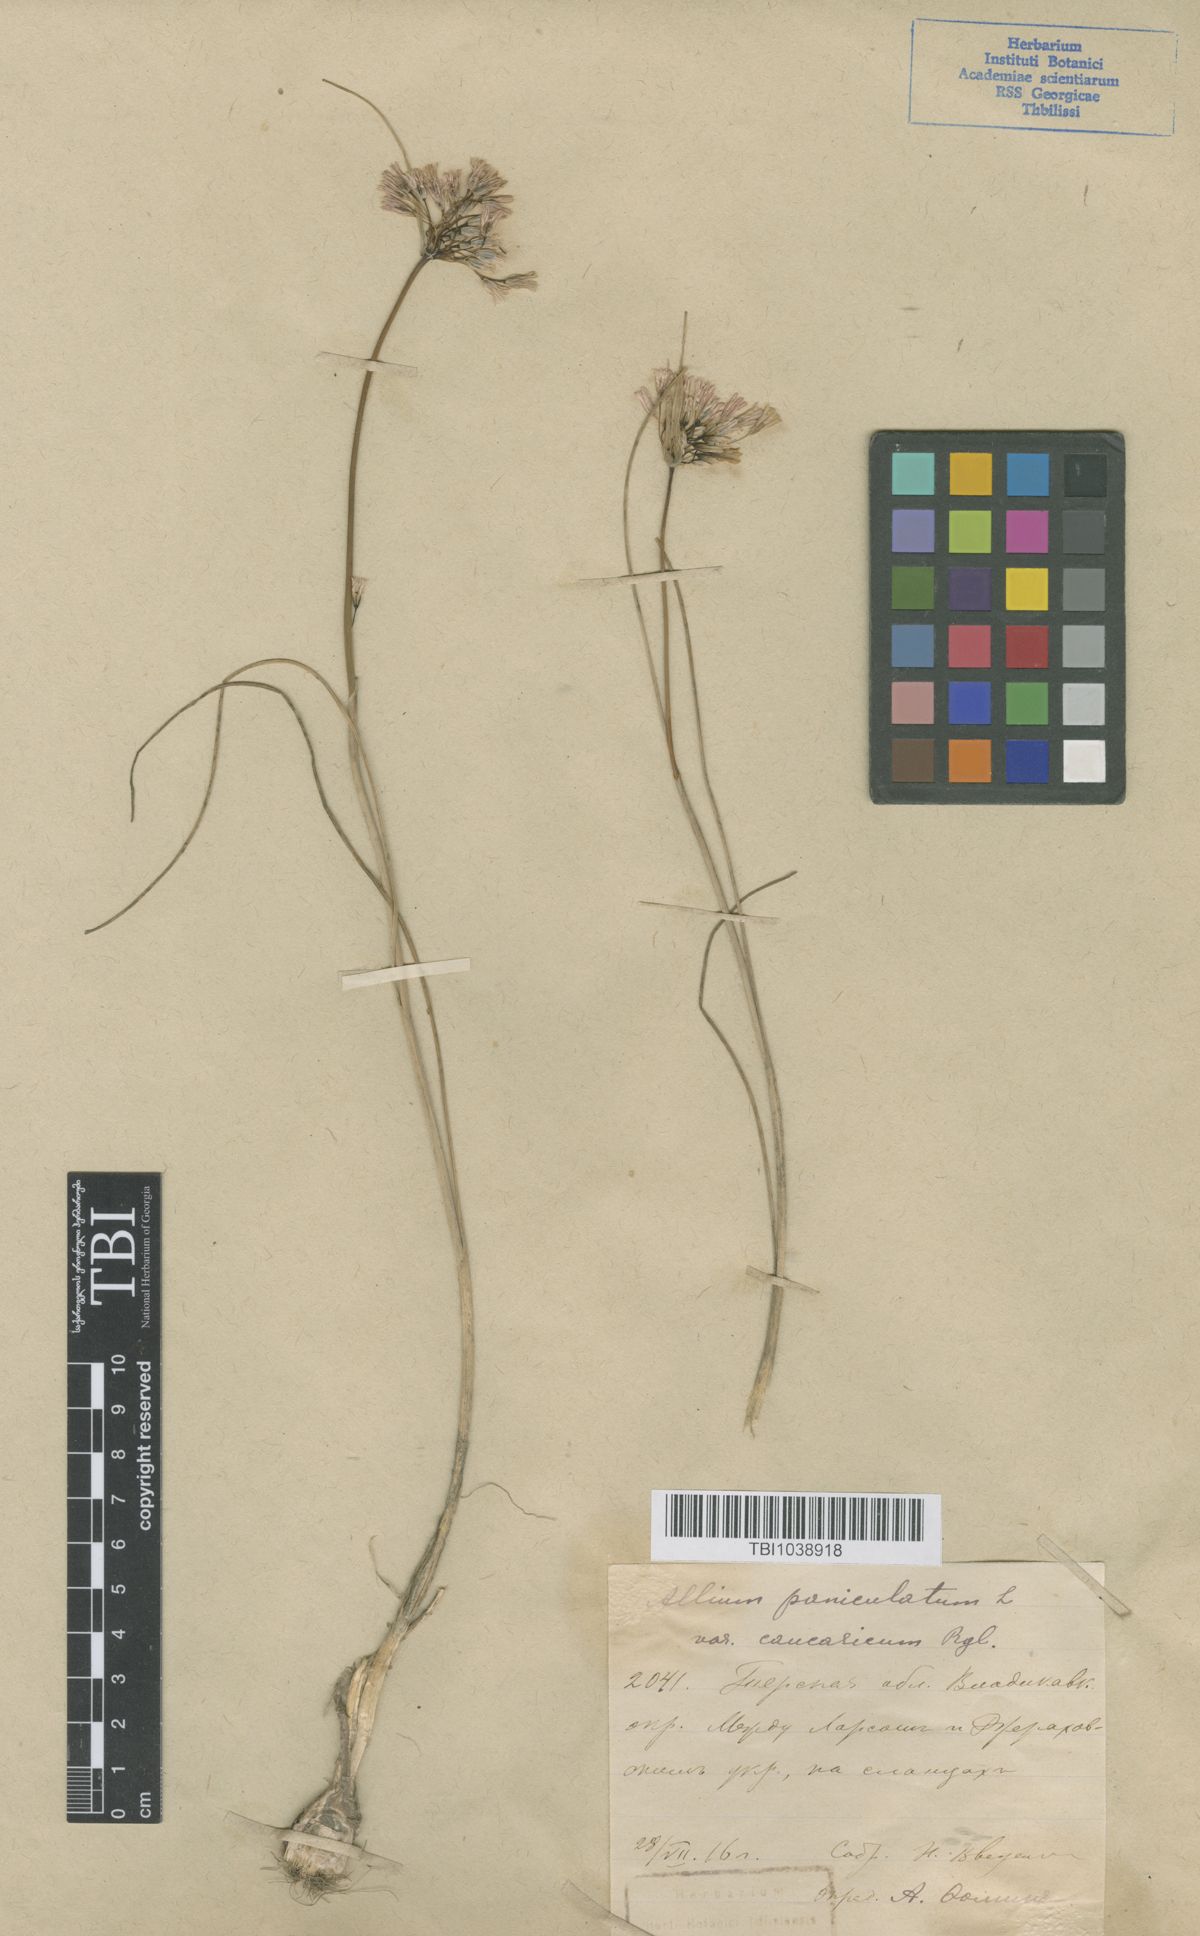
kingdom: Plantae
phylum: Tracheophyta
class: Liliopsida
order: Asparagales
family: Amaryllidaceae
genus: Allium
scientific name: Allium paniculatum
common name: Pale garlic
